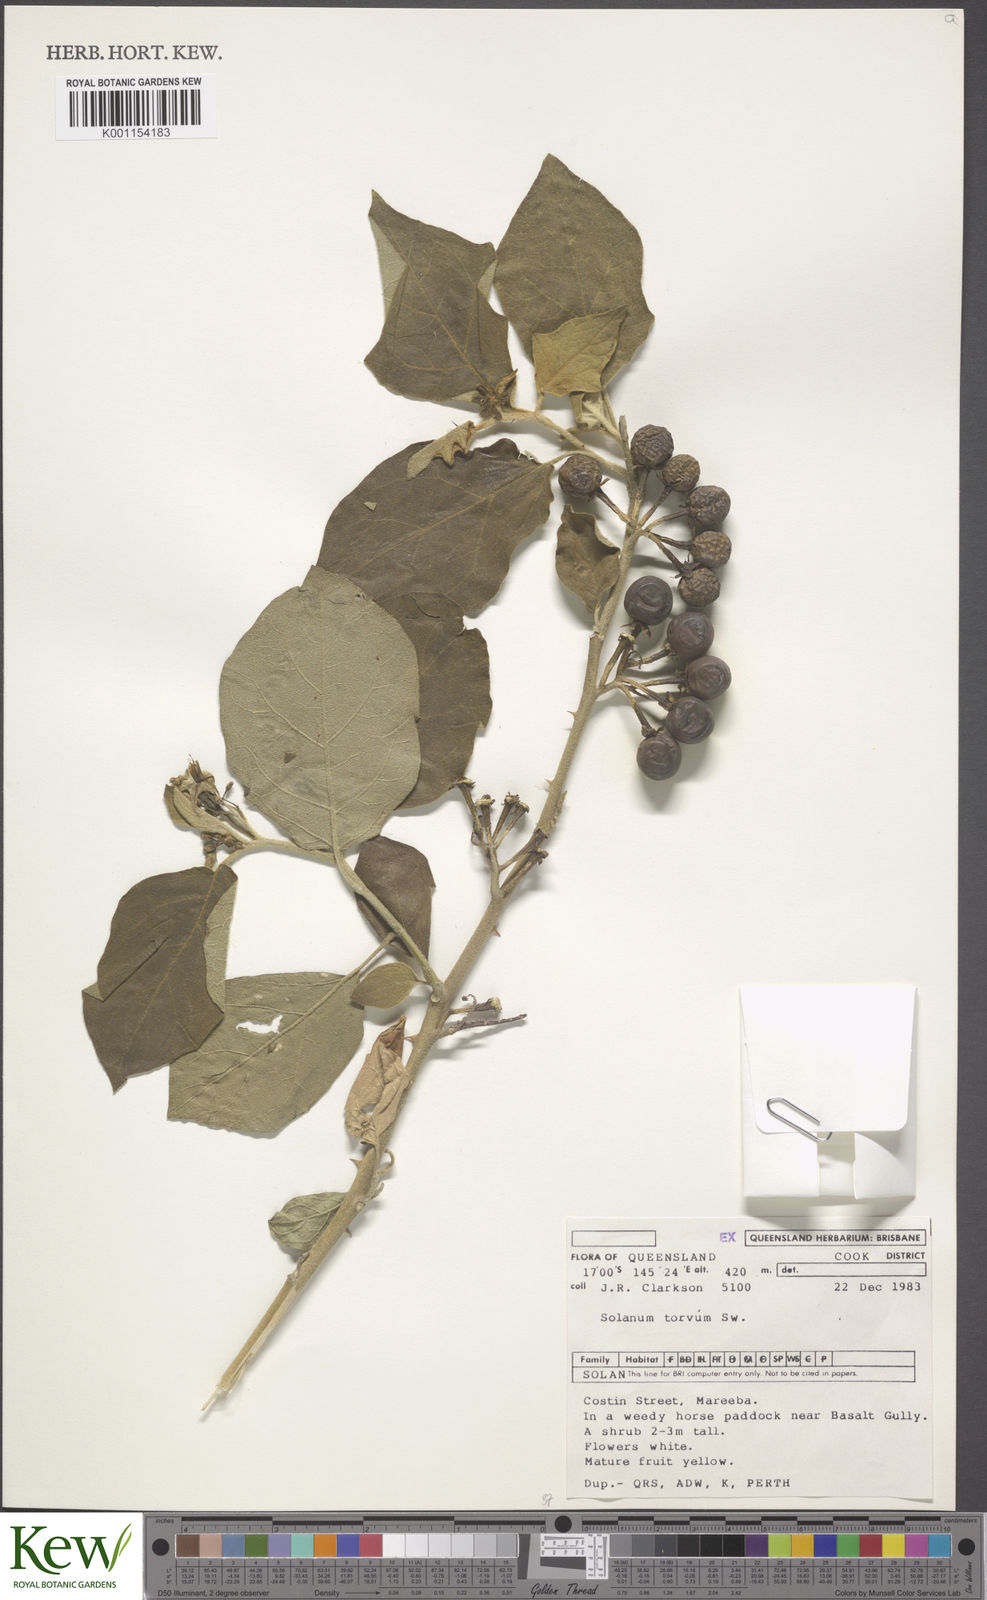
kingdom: Plantae
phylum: Tracheophyta
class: Magnoliopsida
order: Solanales
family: Solanaceae
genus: Solanum
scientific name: Solanum torvum
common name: Turkey berry
